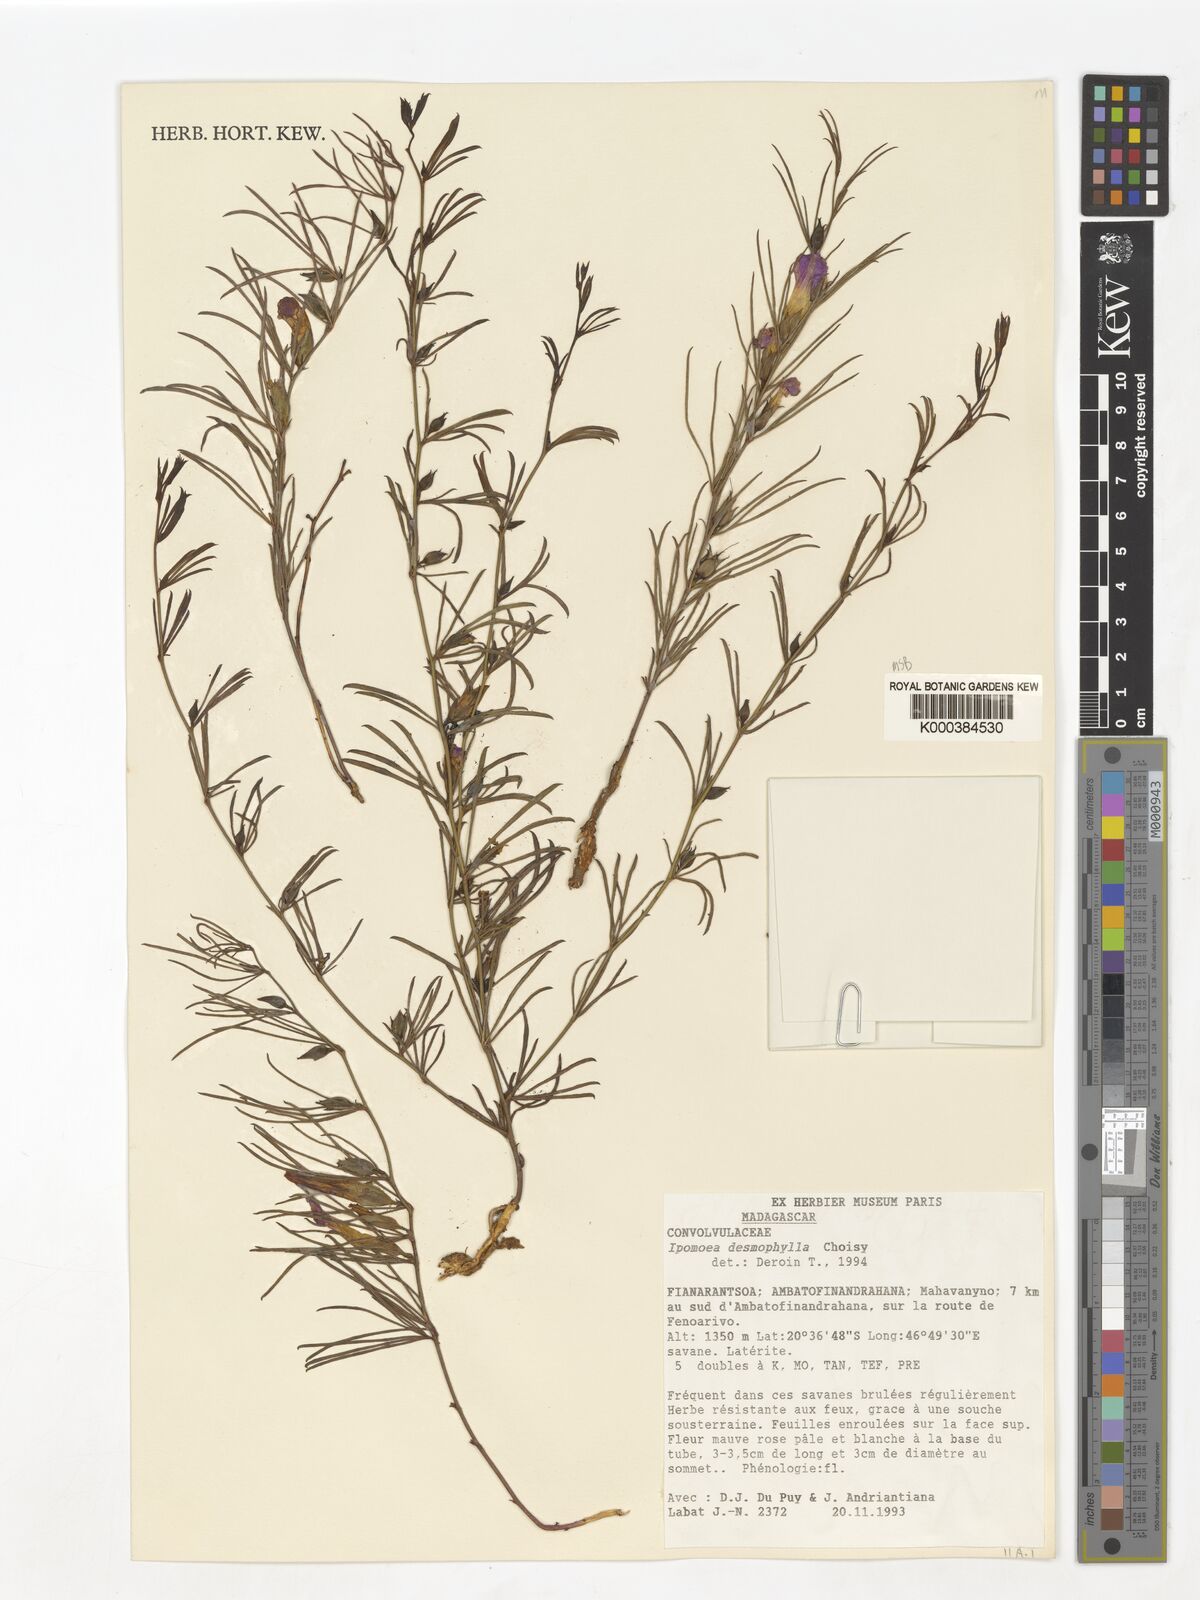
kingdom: Plantae
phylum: Tracheophyta
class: Magnoliopsida
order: Solanales
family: Convolvulaceae
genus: Ipomoea
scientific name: Ipomoea desmophylla
